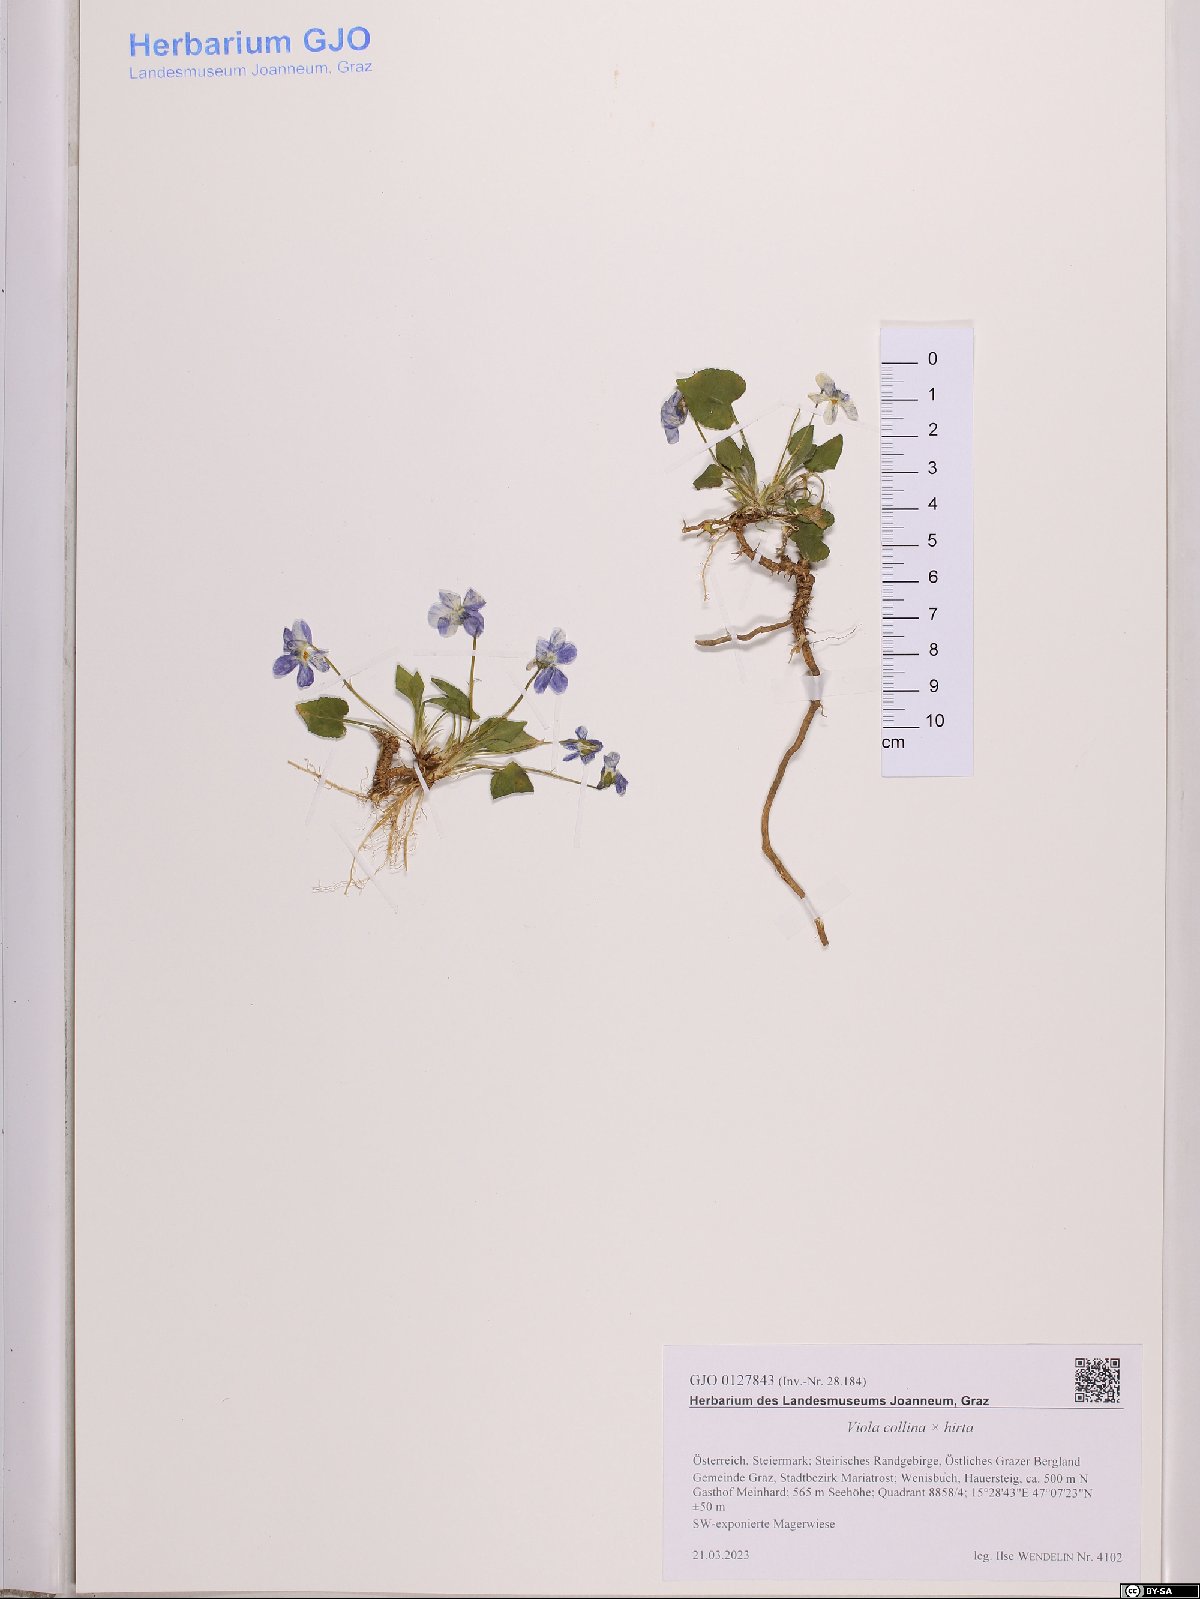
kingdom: Plantae
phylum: Tracheophyta
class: Magnoliopsida
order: Malpighiales
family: Violaceae
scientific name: Violaceae
